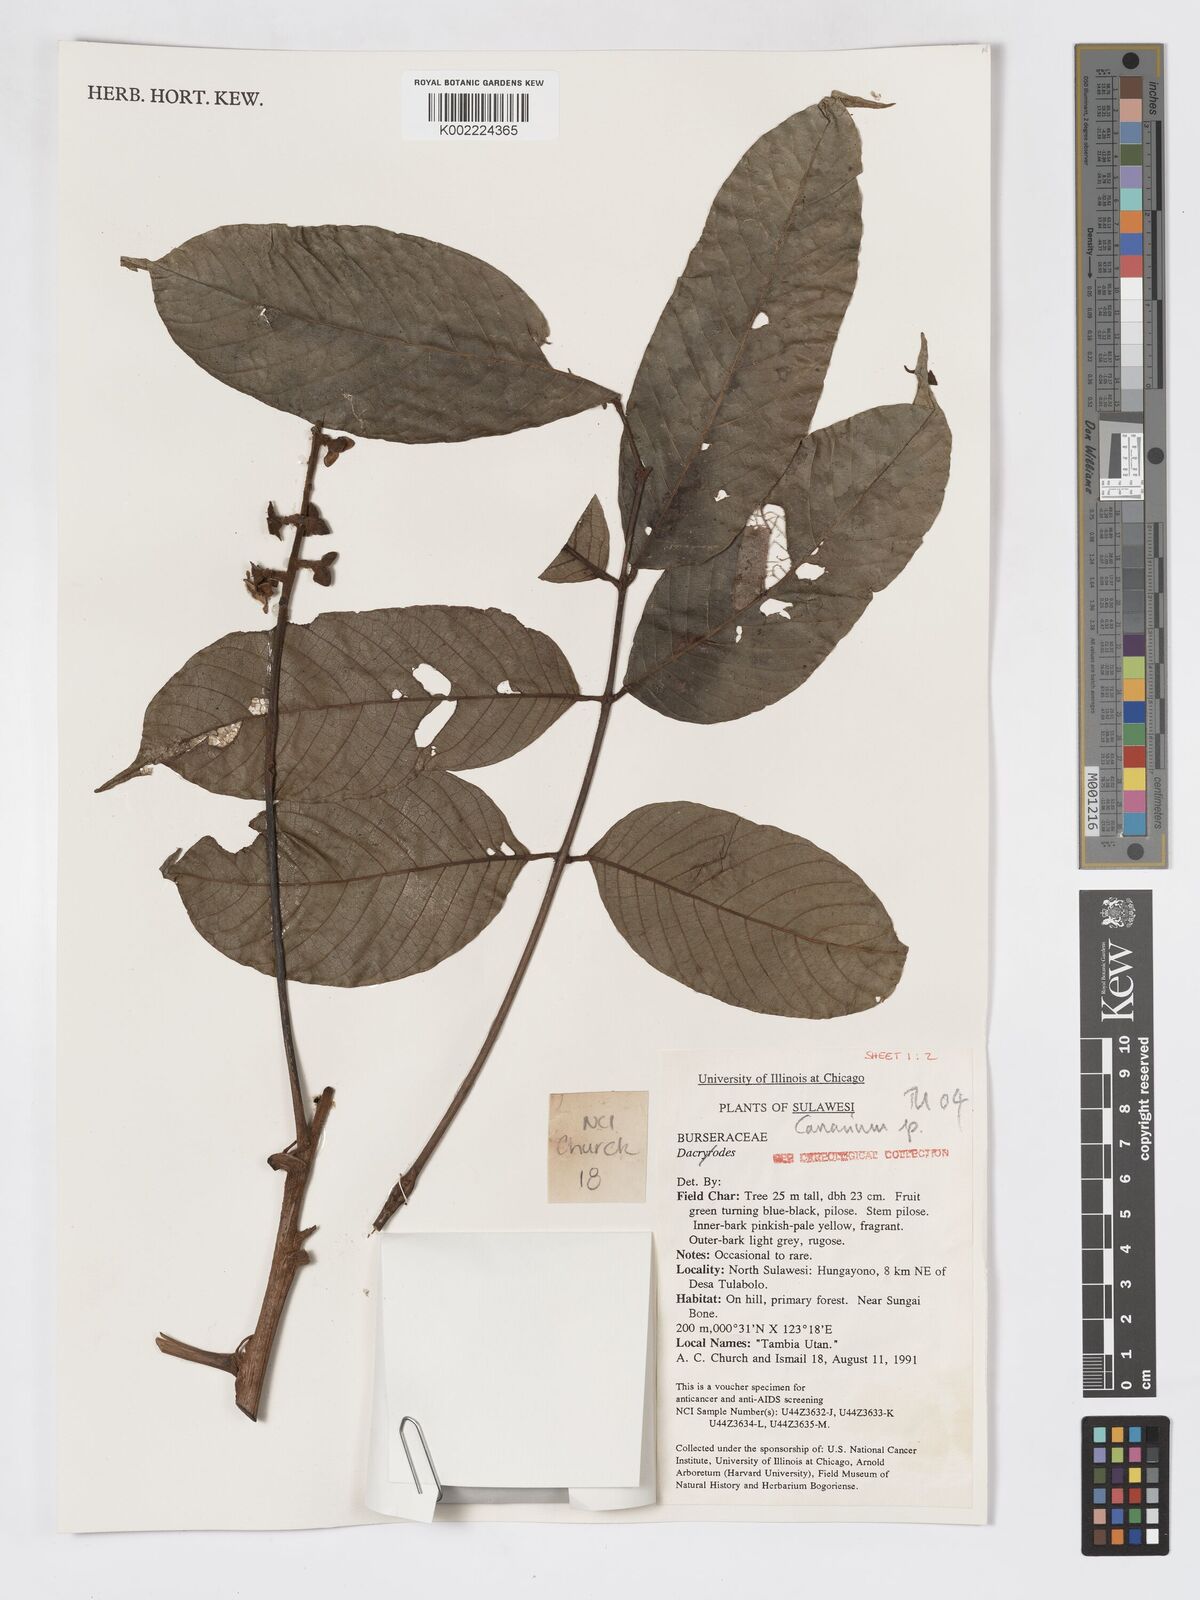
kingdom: Plantae
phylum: Tracheophyta
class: Magnoliopsida
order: Sapindales
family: Burseraceae
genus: Canarium
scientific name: Canarium
